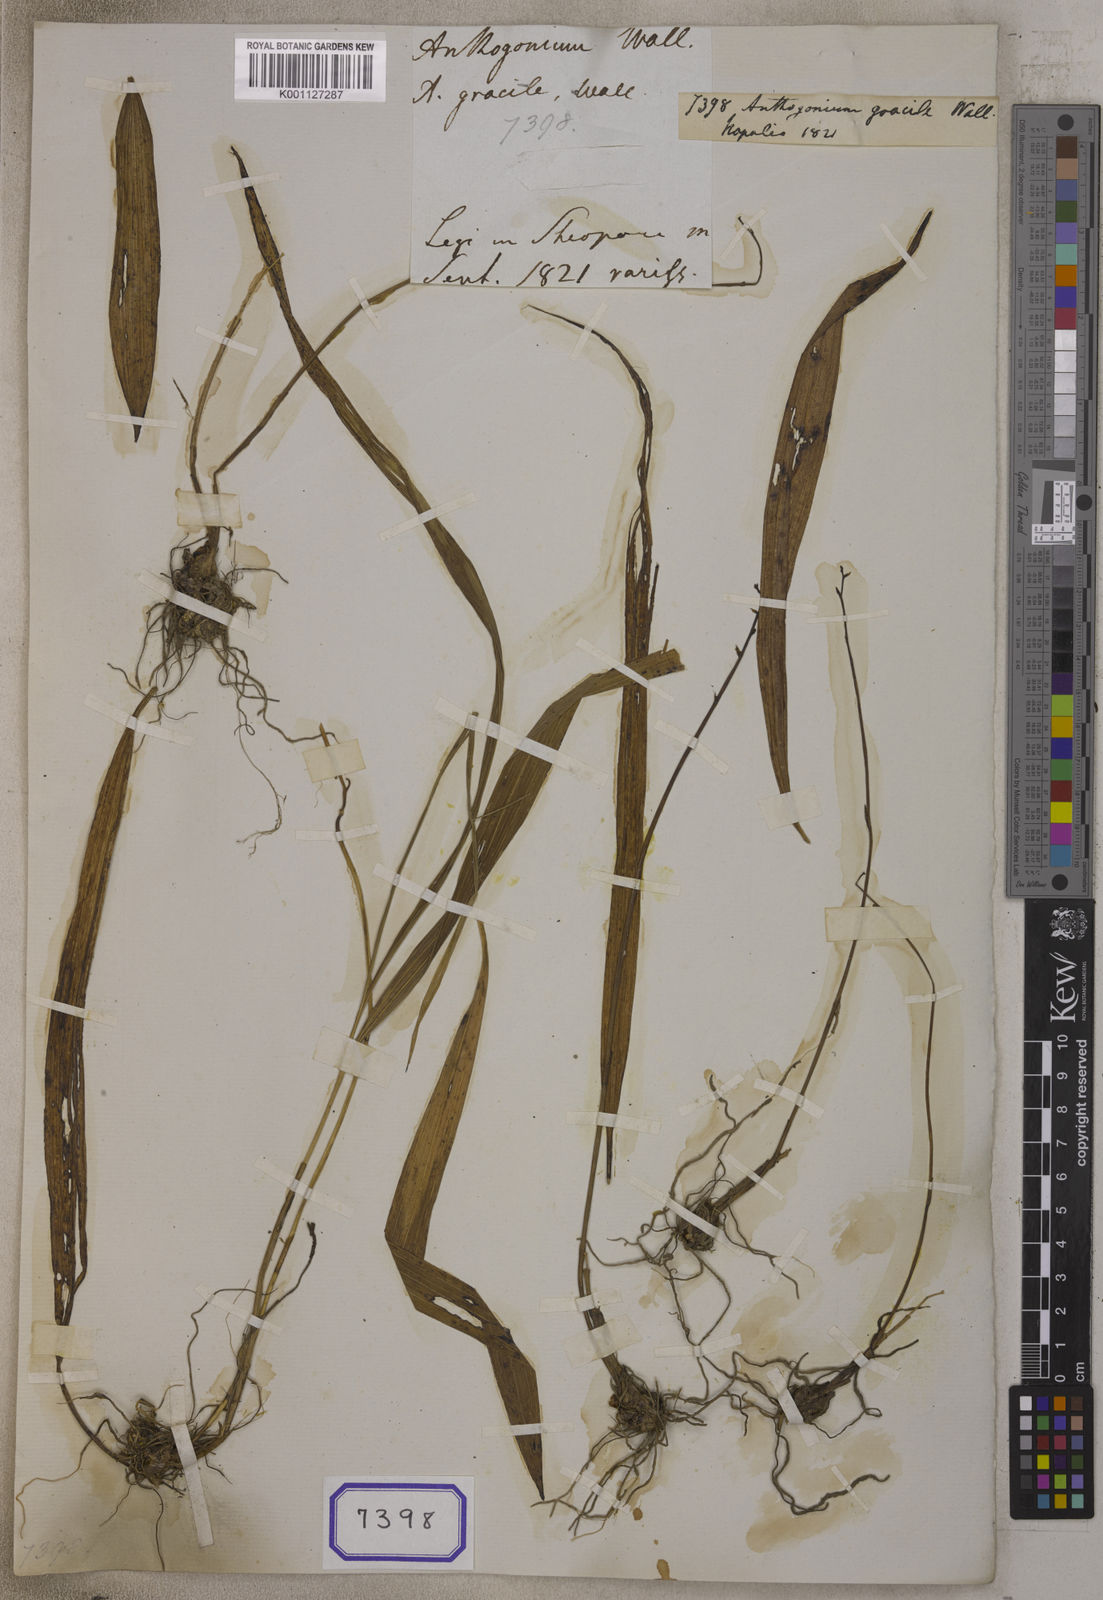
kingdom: Plantae
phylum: Tracheophyta
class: Liliopsida
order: Asparagales
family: Orchidaceae
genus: Anthogonium
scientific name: Anthogonium
